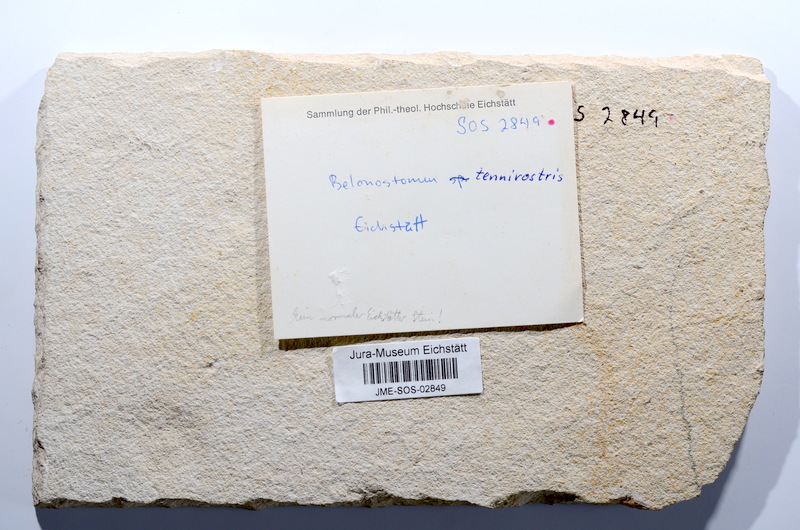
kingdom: Animalia
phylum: Chordata
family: Aspidorhynchidae
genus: Belonostomus
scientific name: Belonostomus muensteri
